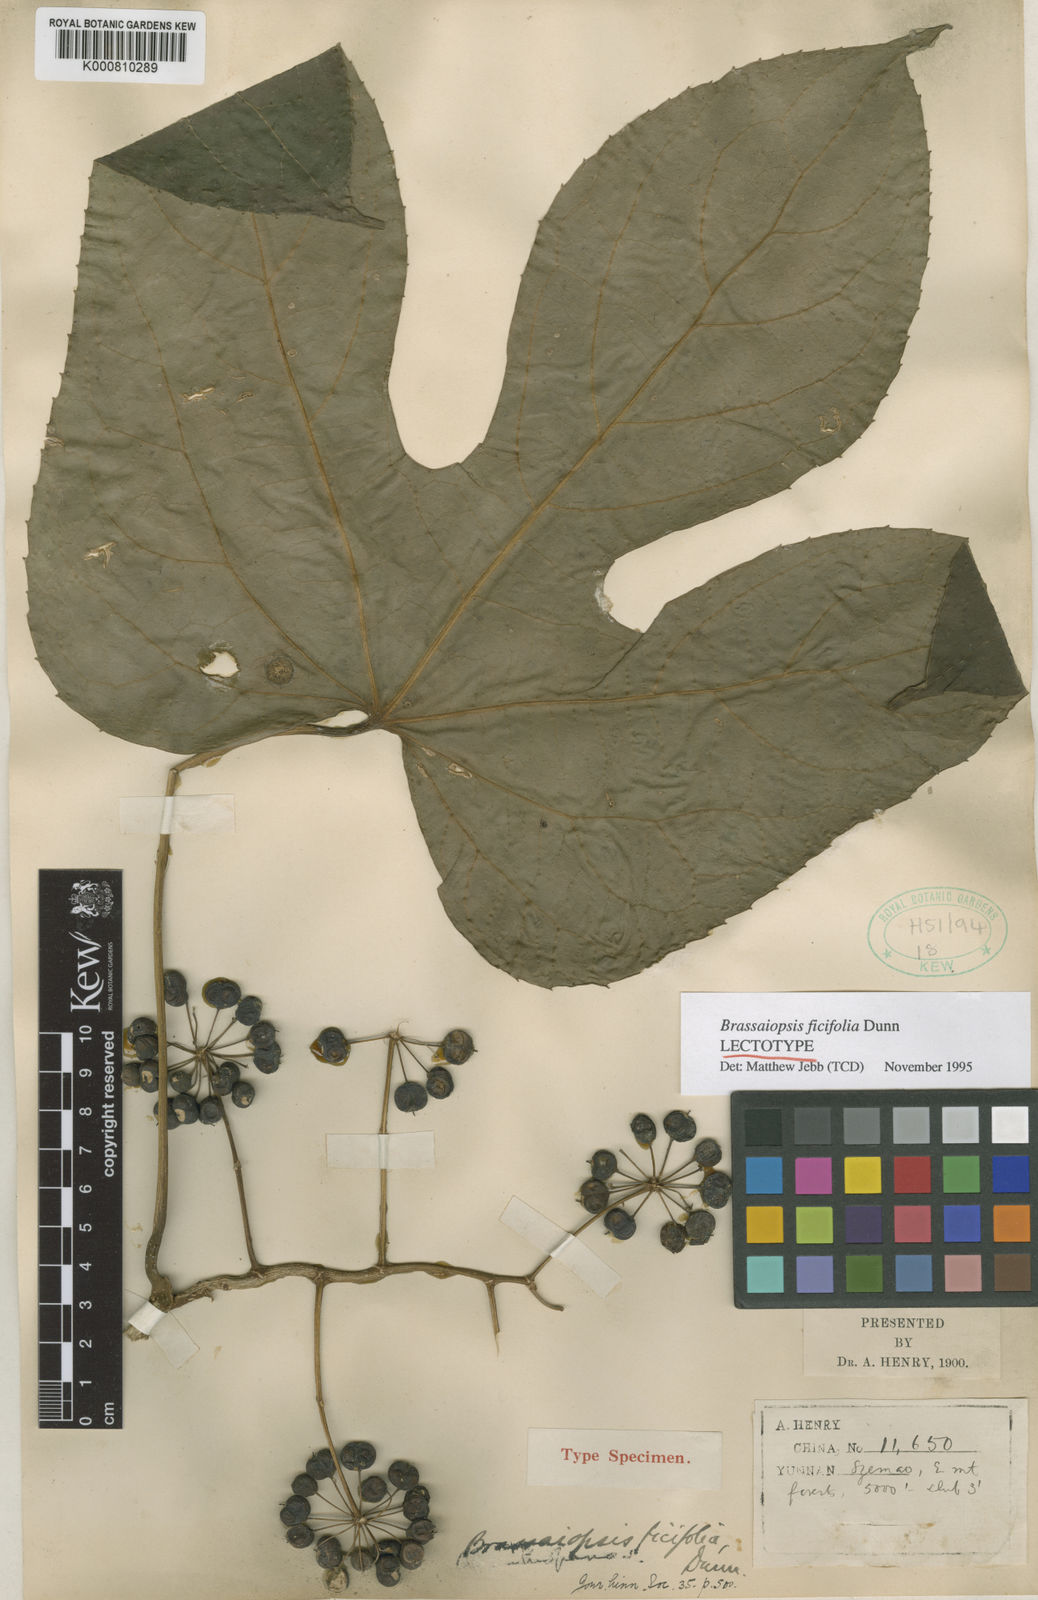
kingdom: Plantae
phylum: Tracheophyta
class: Magnoliopsida
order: Apiales
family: Araliaceae
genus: Brassaiopsis
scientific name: Brassaiopsis ficifolia
